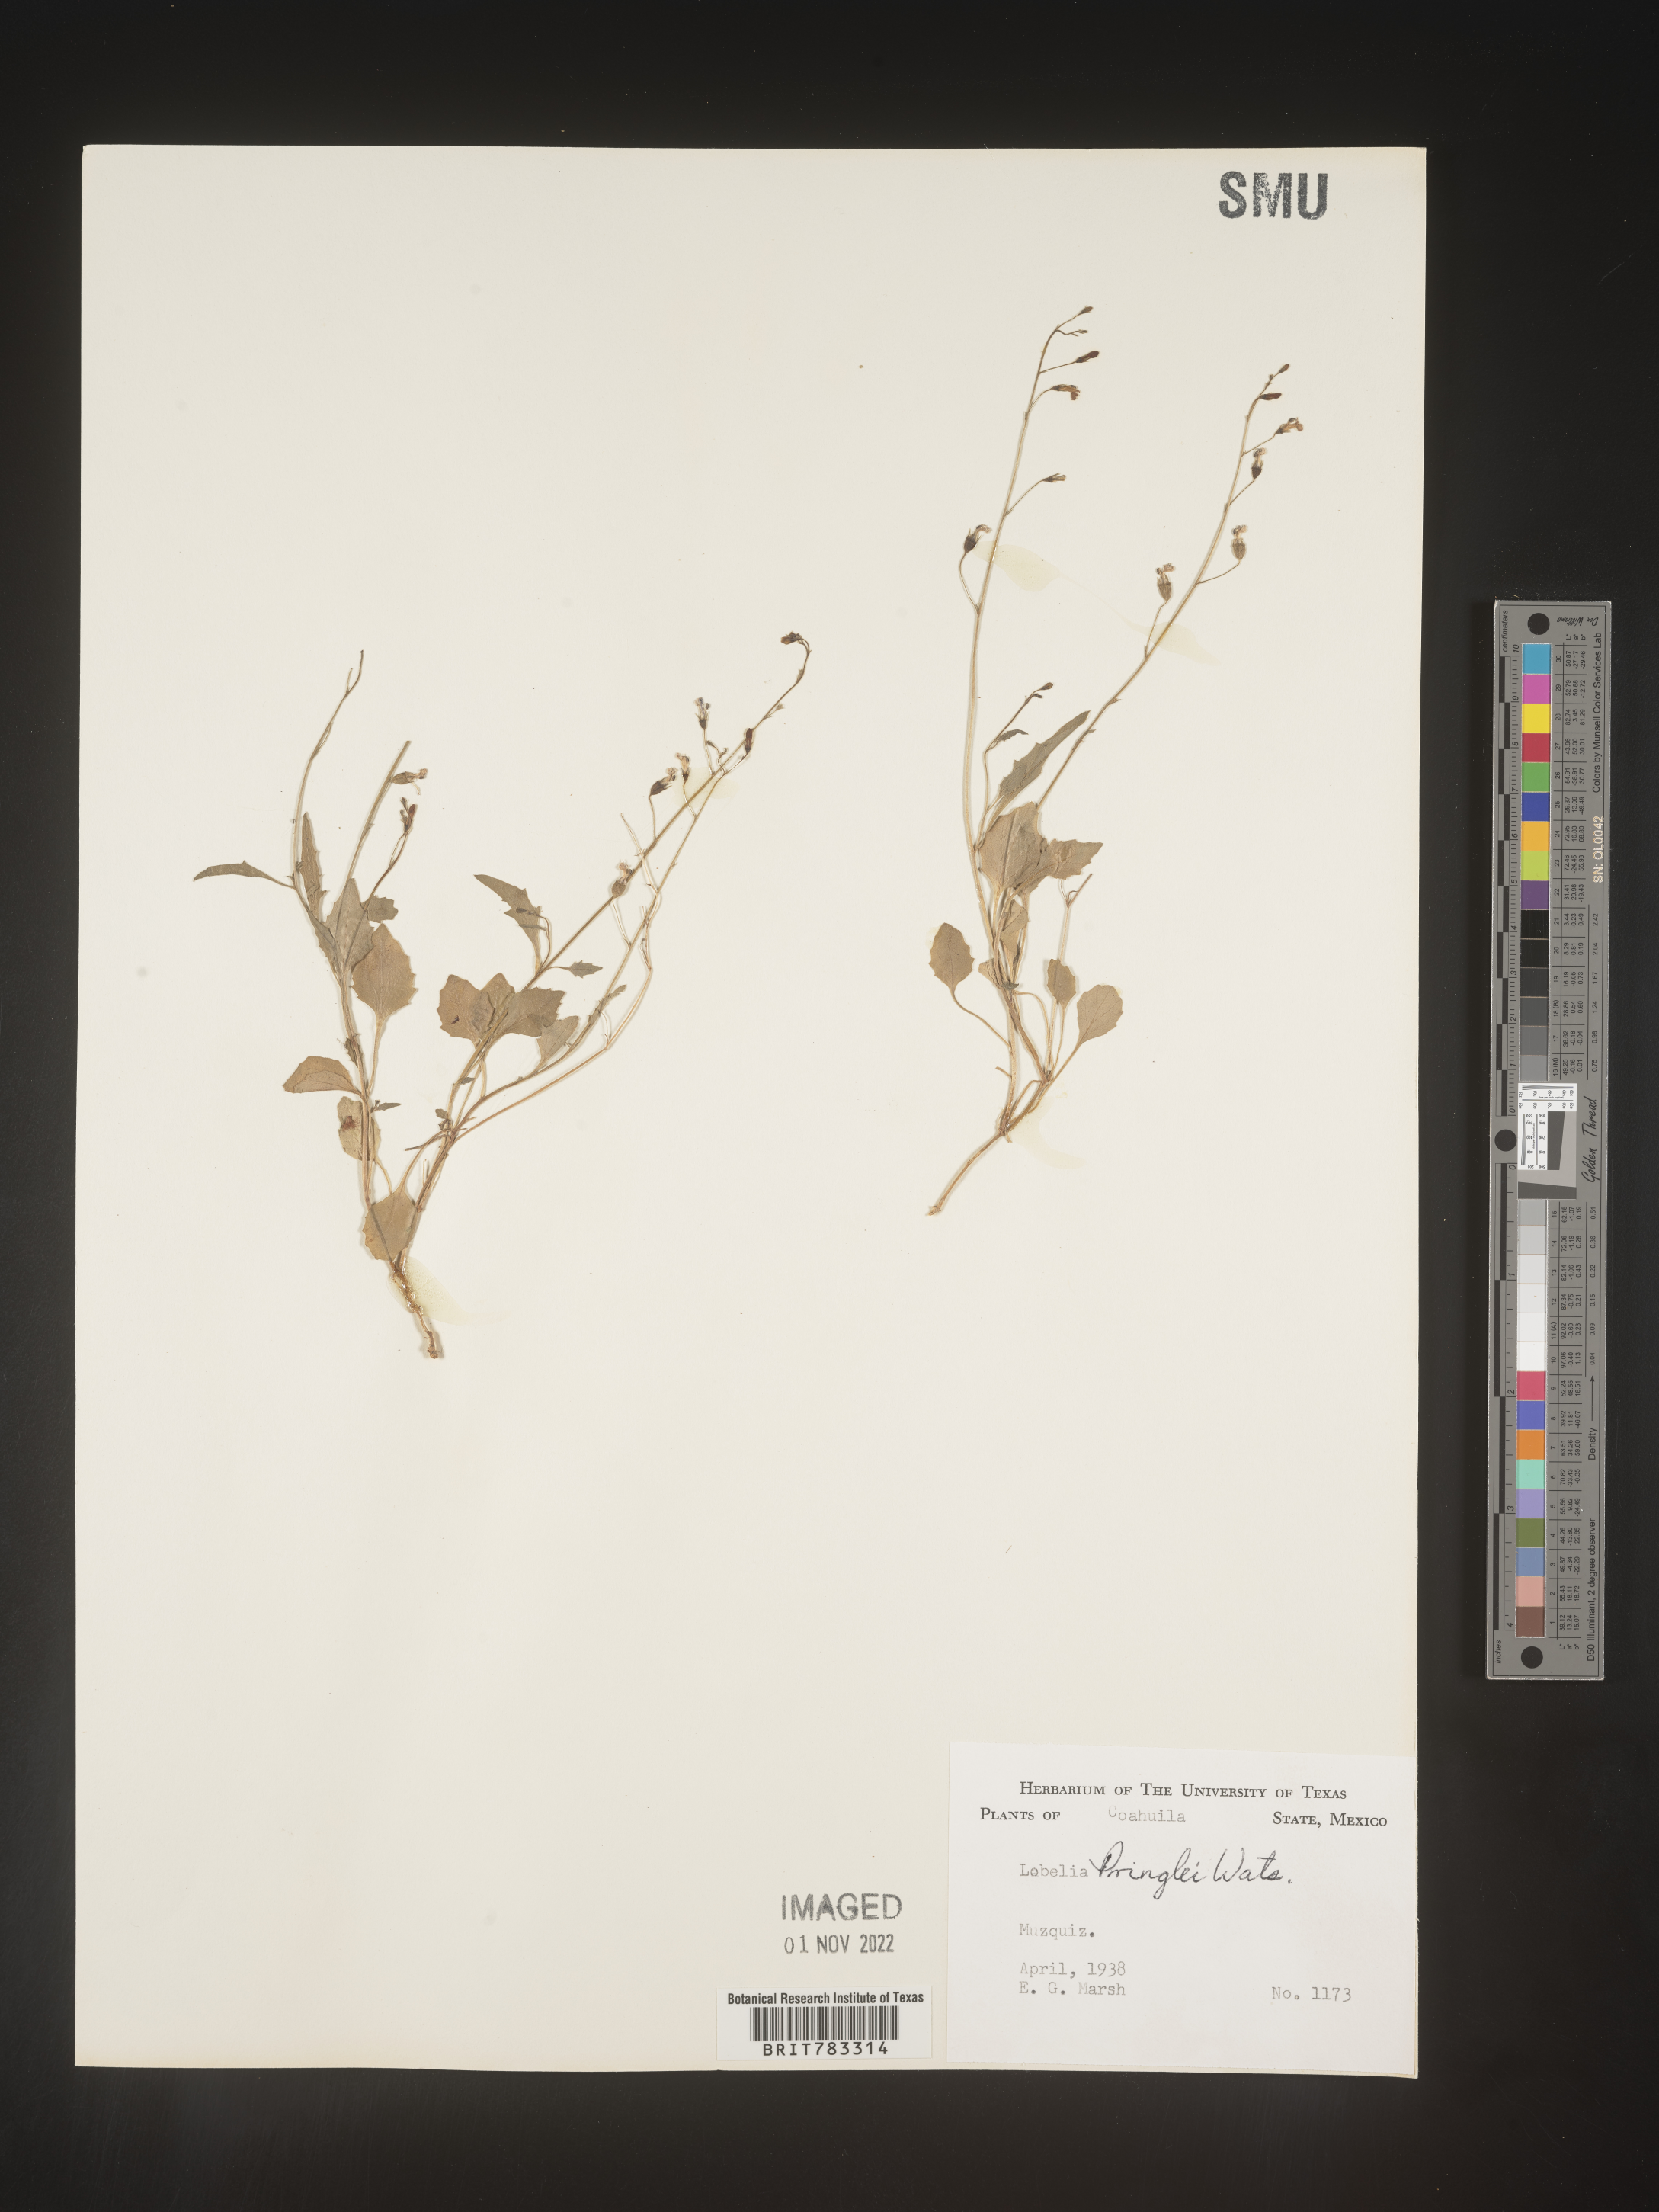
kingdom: Plantae
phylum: Tracheophyta
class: Magnoliopsida
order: Asterales
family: Campanulaceae
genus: Lobelia
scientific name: Lobelia
